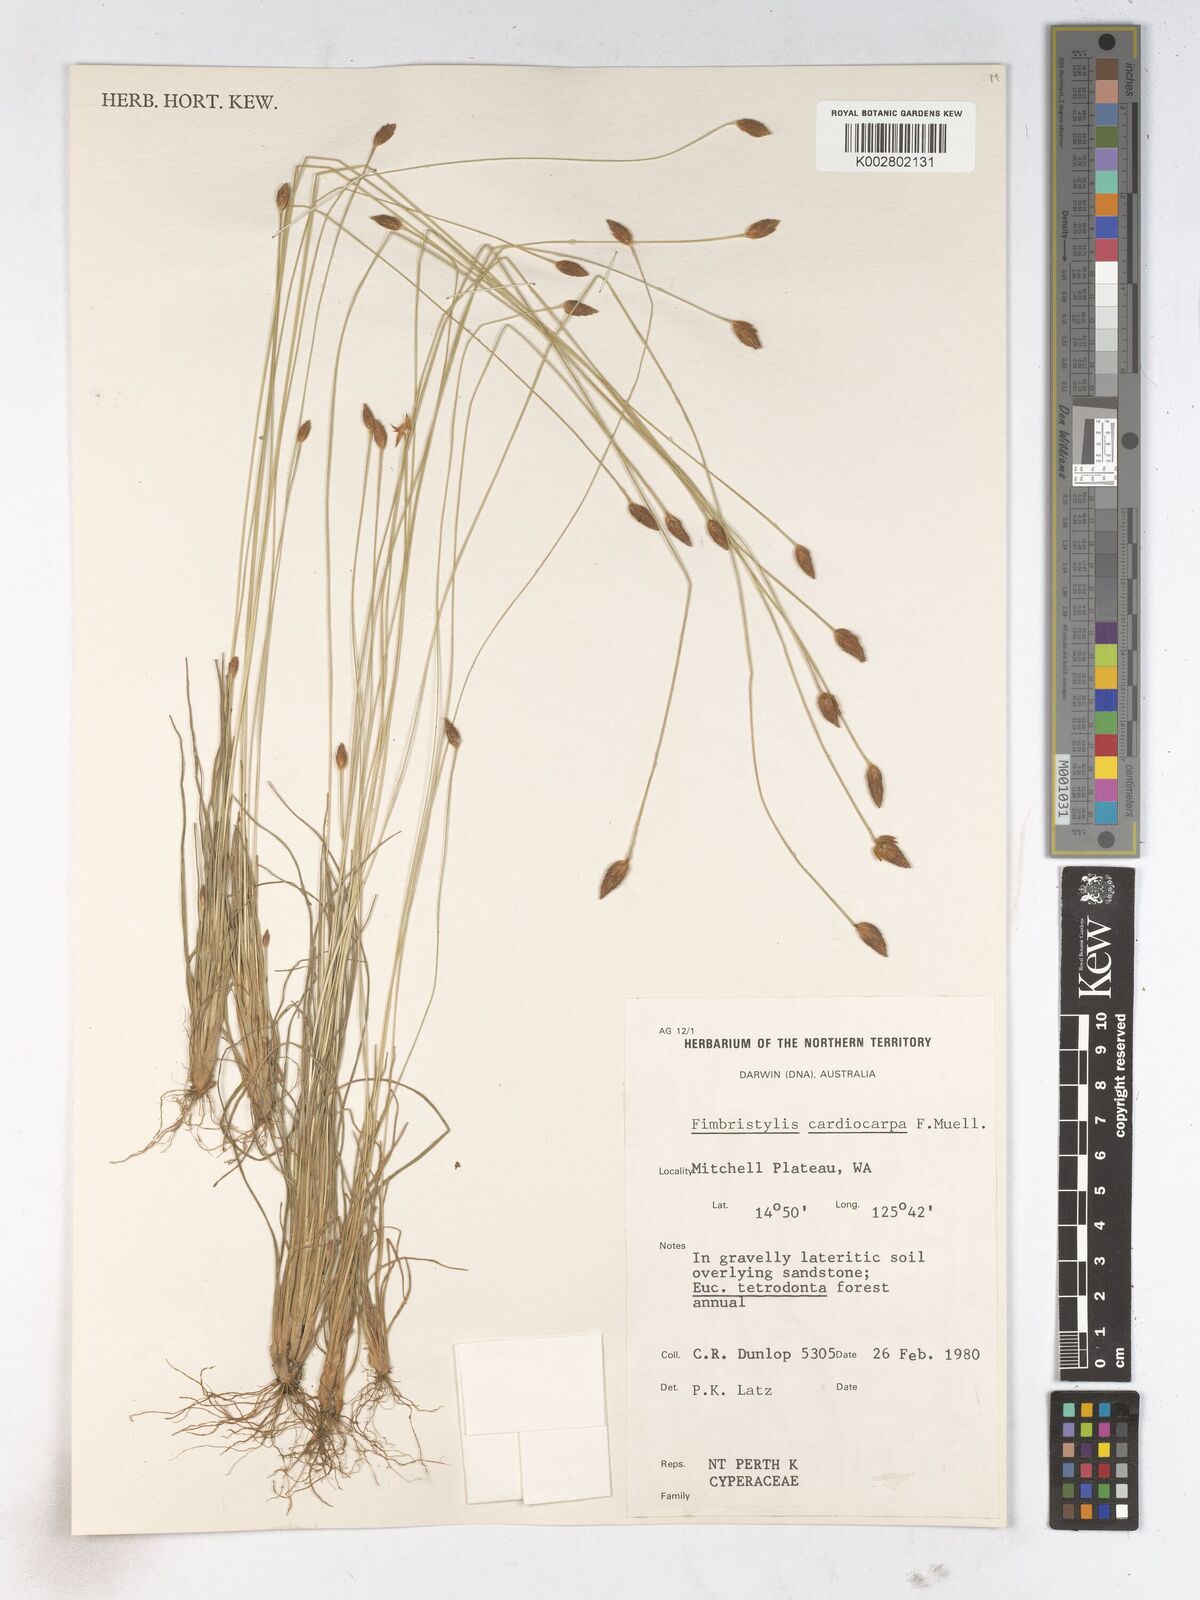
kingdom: Plantae
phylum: Tracheophyta
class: Liliopsida
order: Poales
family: Cyperaceae
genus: Fimbristylis
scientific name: Fimbristylis cardiocarpa
